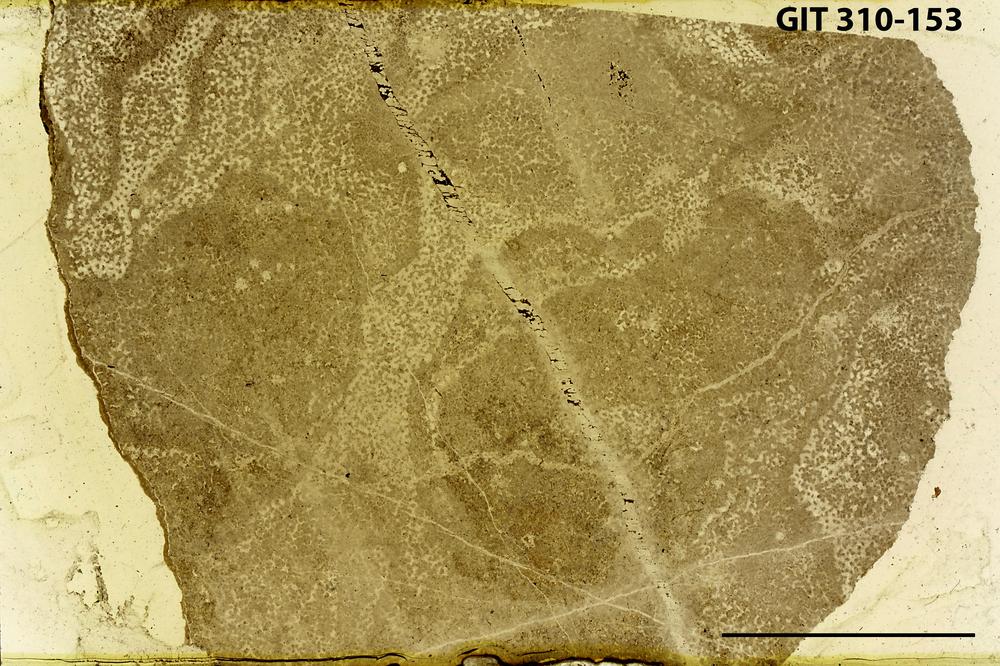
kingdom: Animalia
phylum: Porifera
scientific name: Porifera
